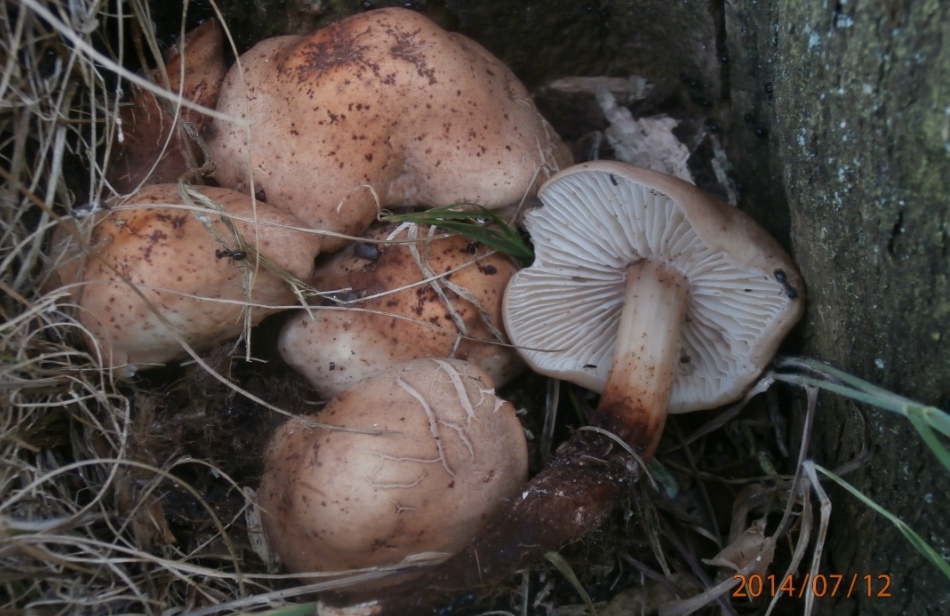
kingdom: Fungi
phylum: Basidiomycota
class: Agaricomycetes
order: Agaricales
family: Omphalotaceae
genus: Gymnopus
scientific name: Gymnopus fusipes
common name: tenstokket fladhat
